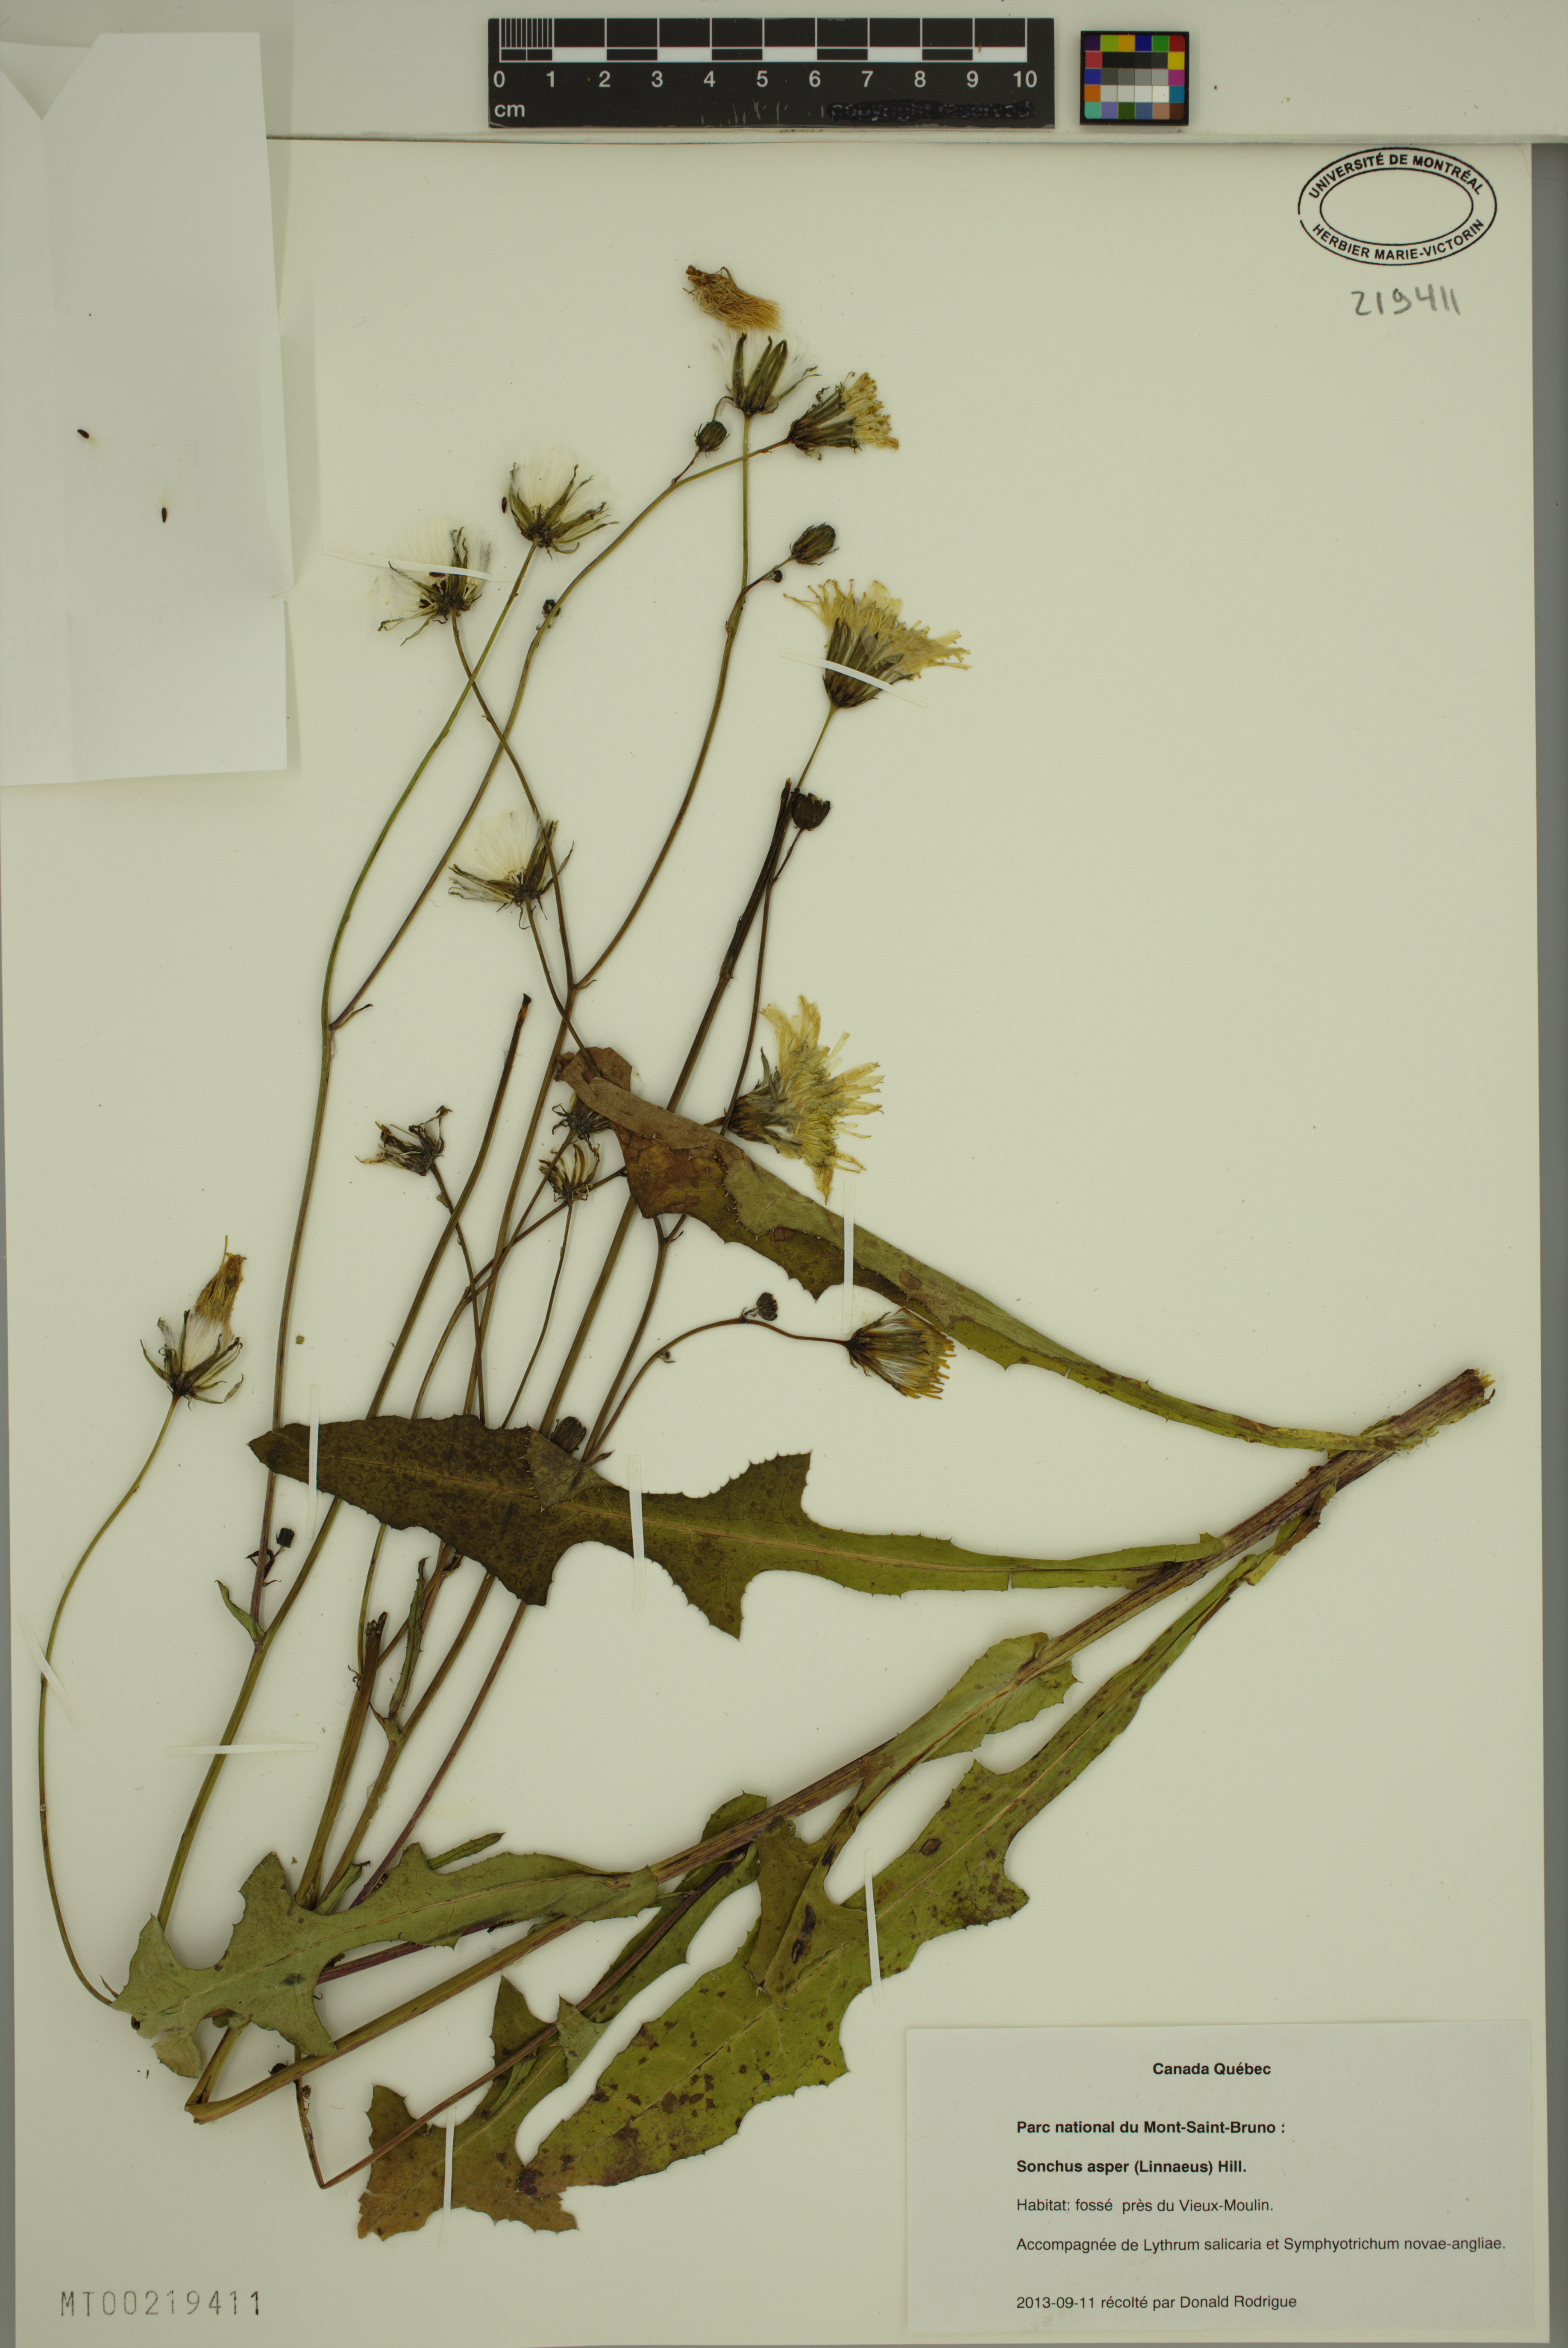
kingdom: Plantae
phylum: Tracheophyta
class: Magnoliopsida
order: Asterales
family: Asteraceae
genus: Sonchus
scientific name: Sonchus asper
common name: Prickly sow-thistle
